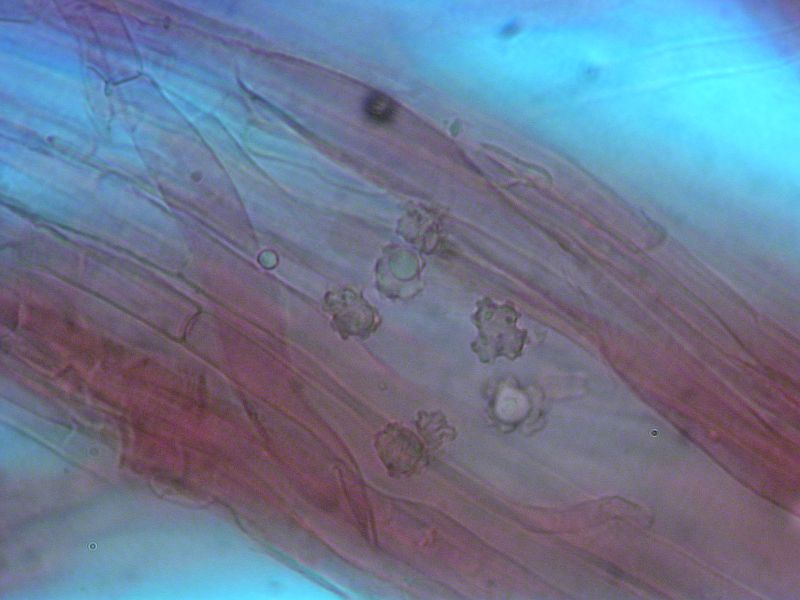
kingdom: Fungi
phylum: Basidiomycota
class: Agaricomycetes
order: Thelephorales
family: Bankeraceae
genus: Sarcodon
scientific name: Sarcodon squamosus
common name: småskællet kødpigsvamp
